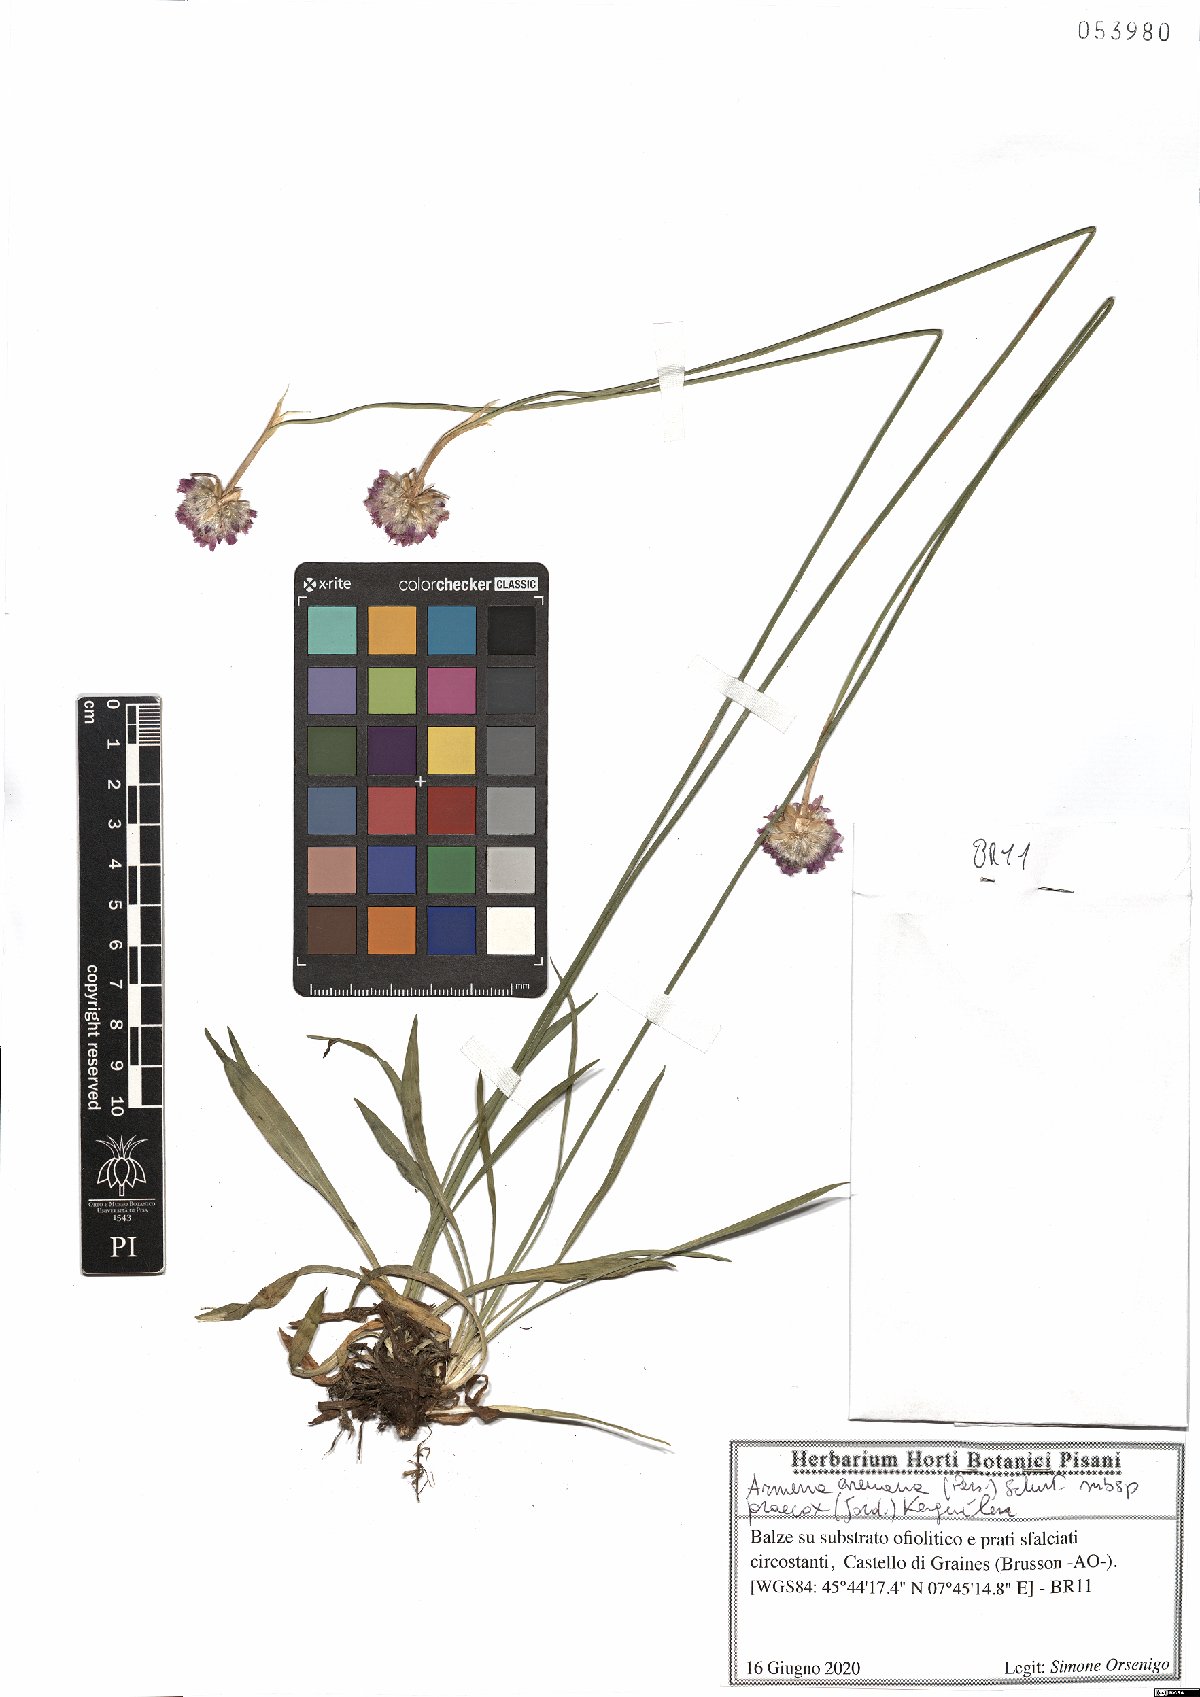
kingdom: Plantae
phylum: Tracheophyta
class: Magnoliopsida
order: Caryophyllales
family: Plumbaginaceae
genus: Armeria
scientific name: Armeria arenaria
